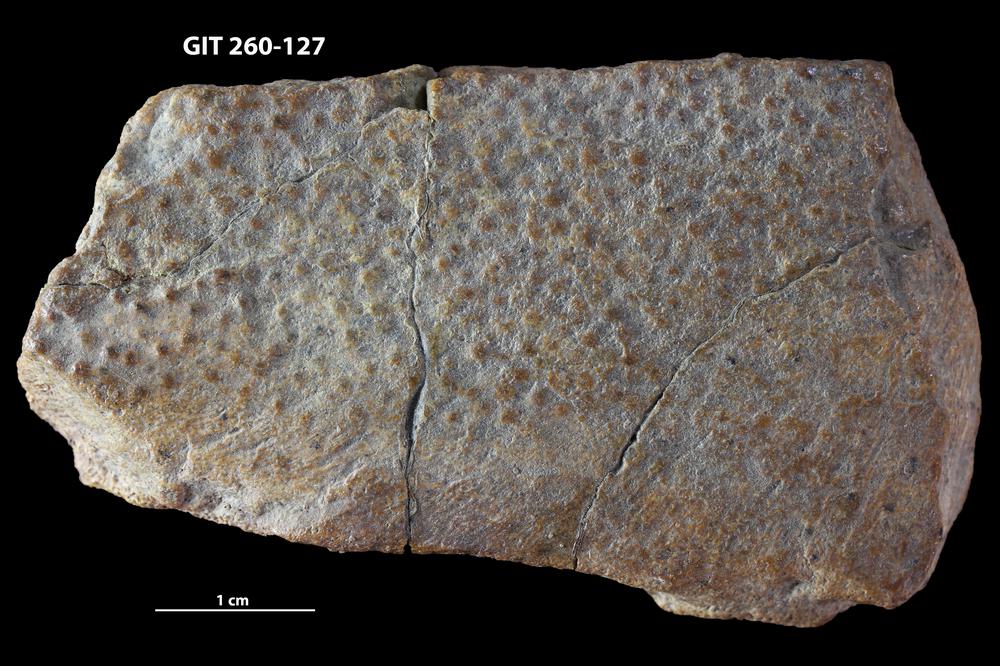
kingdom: Animalia
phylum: Chordata
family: Homostiidae
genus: Homostius
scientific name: Homostius
